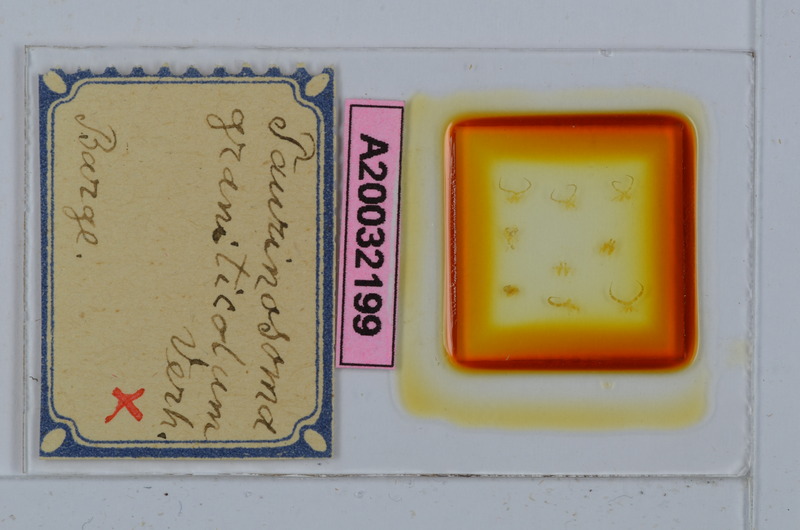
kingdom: Animalia
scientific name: Animalia
